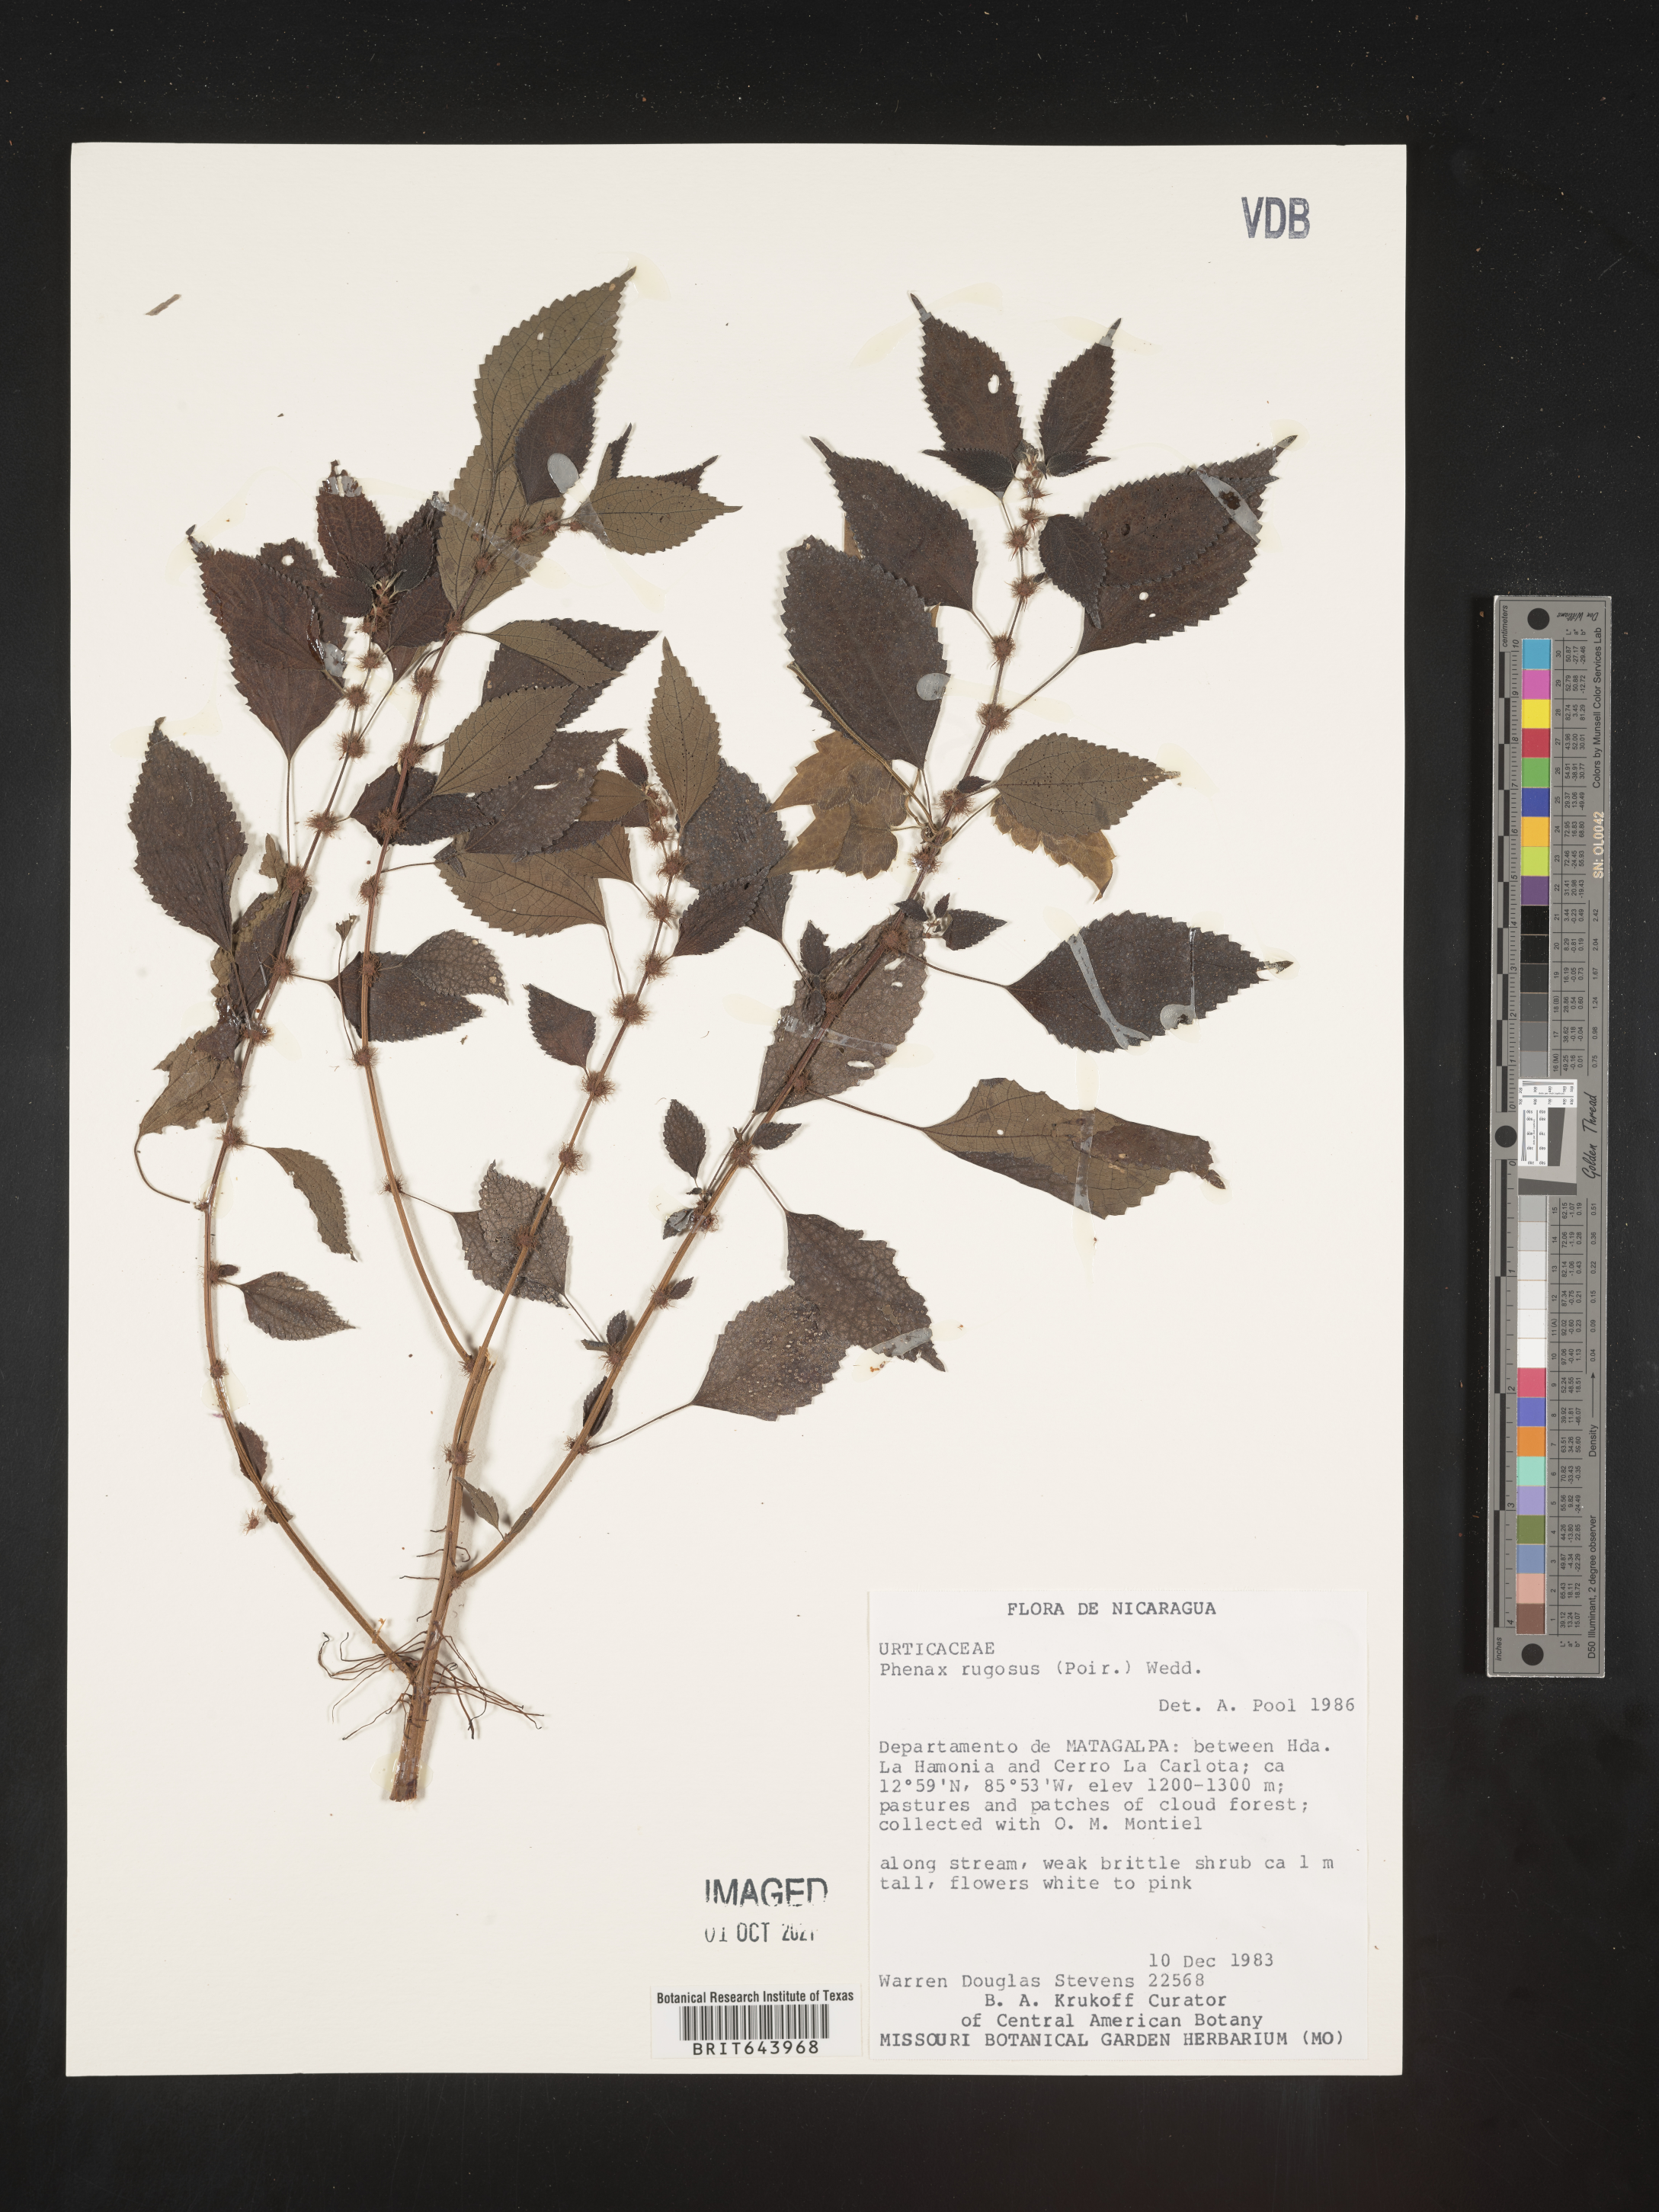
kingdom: Plantae
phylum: Tracheophyta
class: Magnoliopsida
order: Rosales
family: Urticaceae
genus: Phenax
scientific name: Phenax
